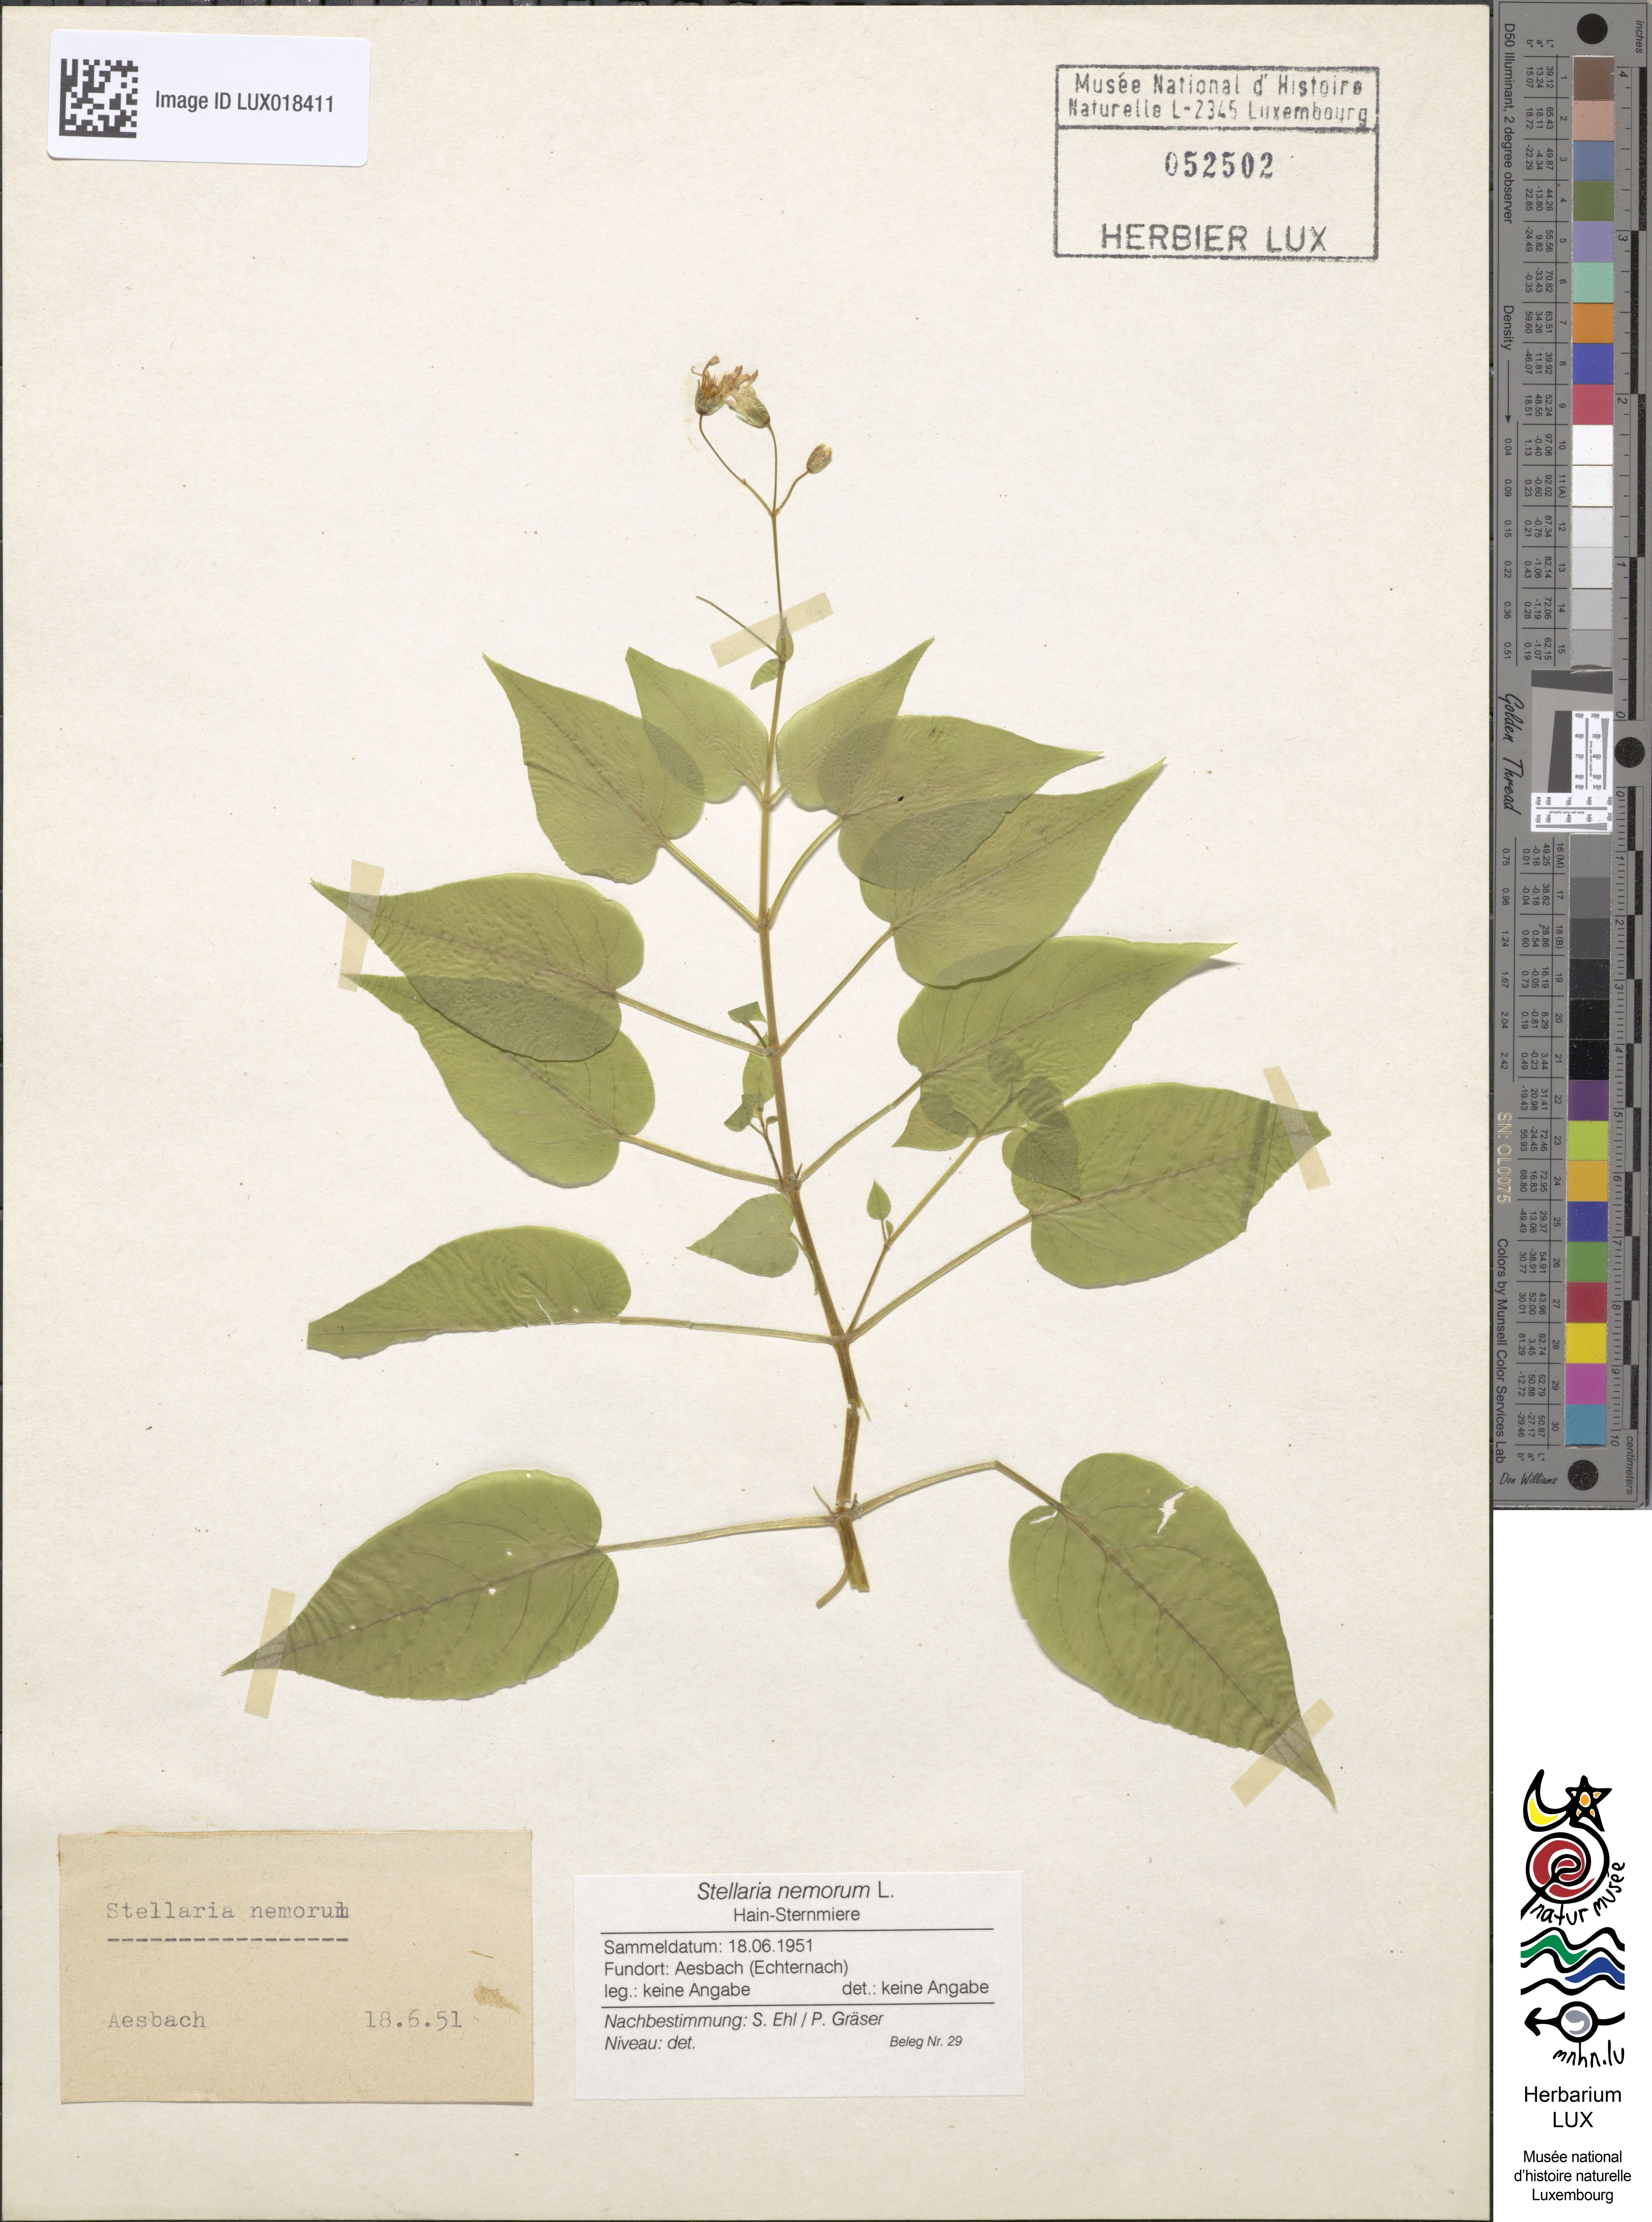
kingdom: Plantae
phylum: Tracheophyta
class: Magnoliopsida
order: Caryophyllales
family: Caryophyllaceae
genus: Stellaria
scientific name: Stellaria nemorum
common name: Wood stitchwort
